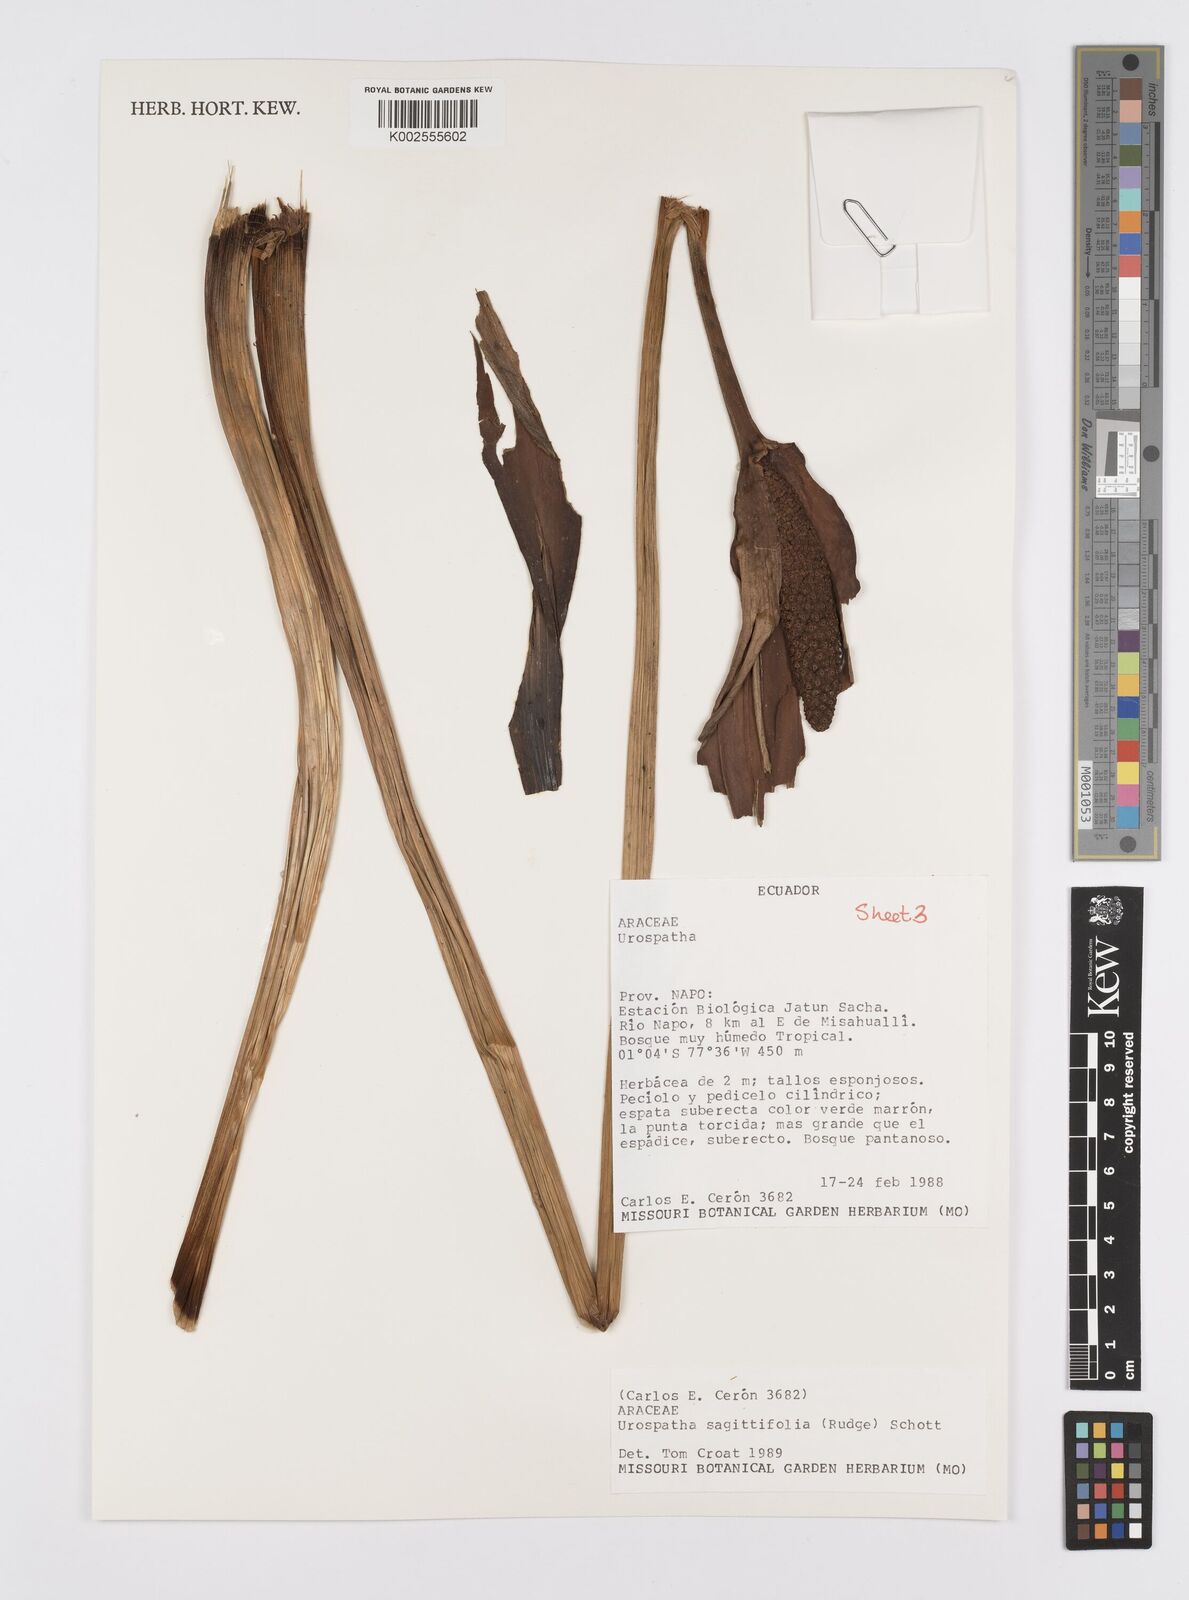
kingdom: Plantae
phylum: Tracheophyta
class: Liliopsida
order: Alismatales
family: Araceae
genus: Urospatha
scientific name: Urospatha sagittifolia
